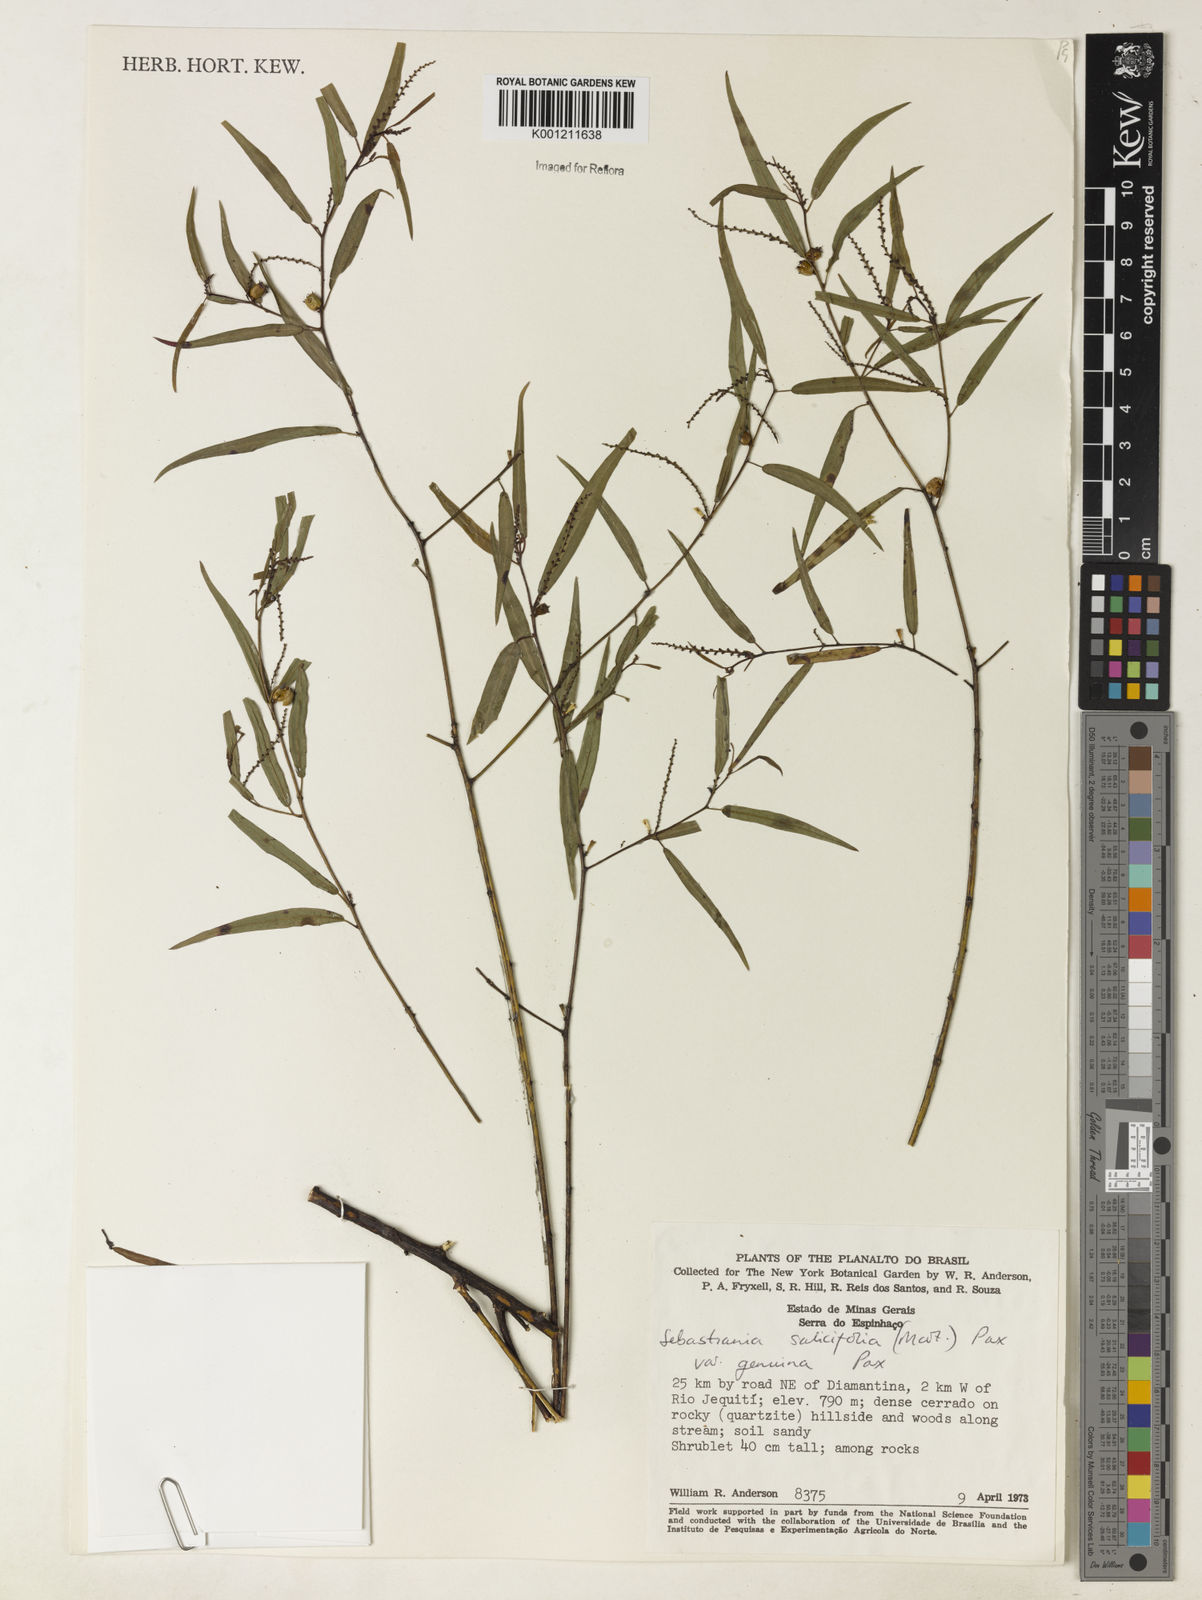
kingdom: Plantae
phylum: Tracheophyta
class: Magnoliopsida
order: Malpighiales
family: Euphorbiaceae
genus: Microstachys
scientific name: Microstachys
